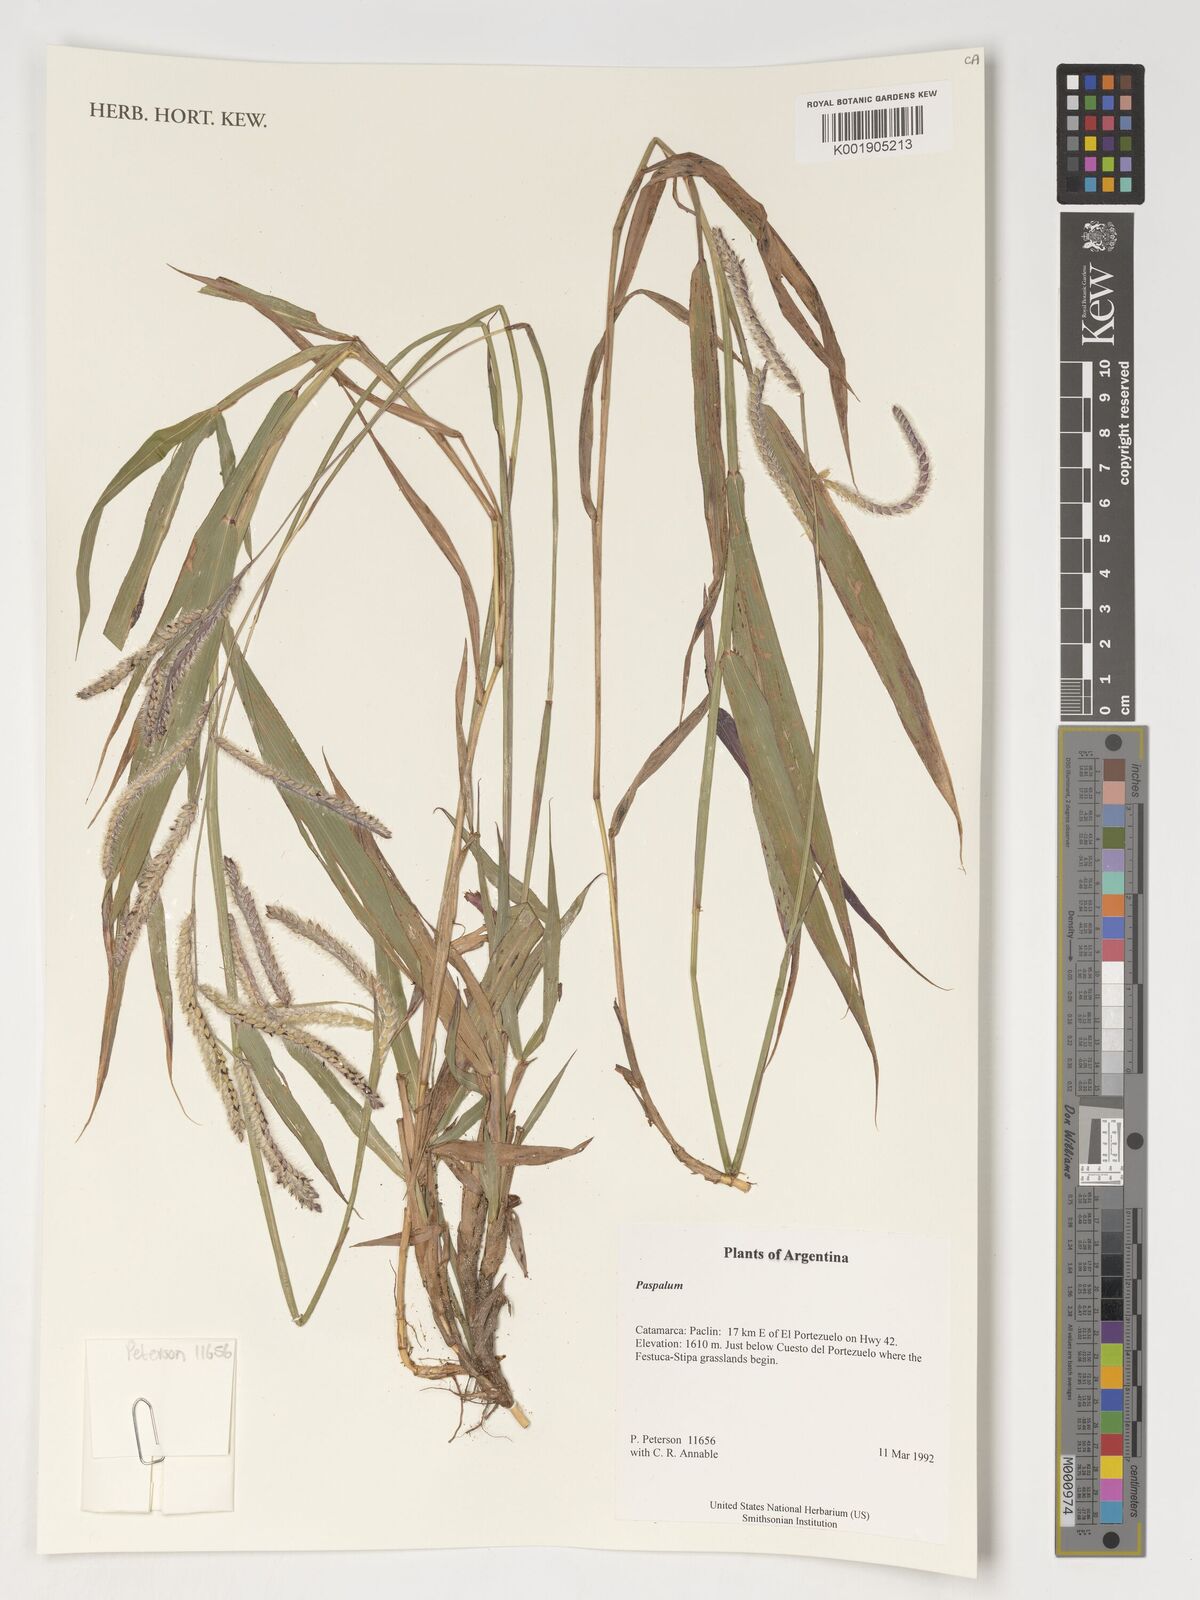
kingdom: Plantae
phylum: Tracheophyta
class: Liliopsida
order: Poales
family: Poaceae
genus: Paspalum
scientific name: Paspalum
